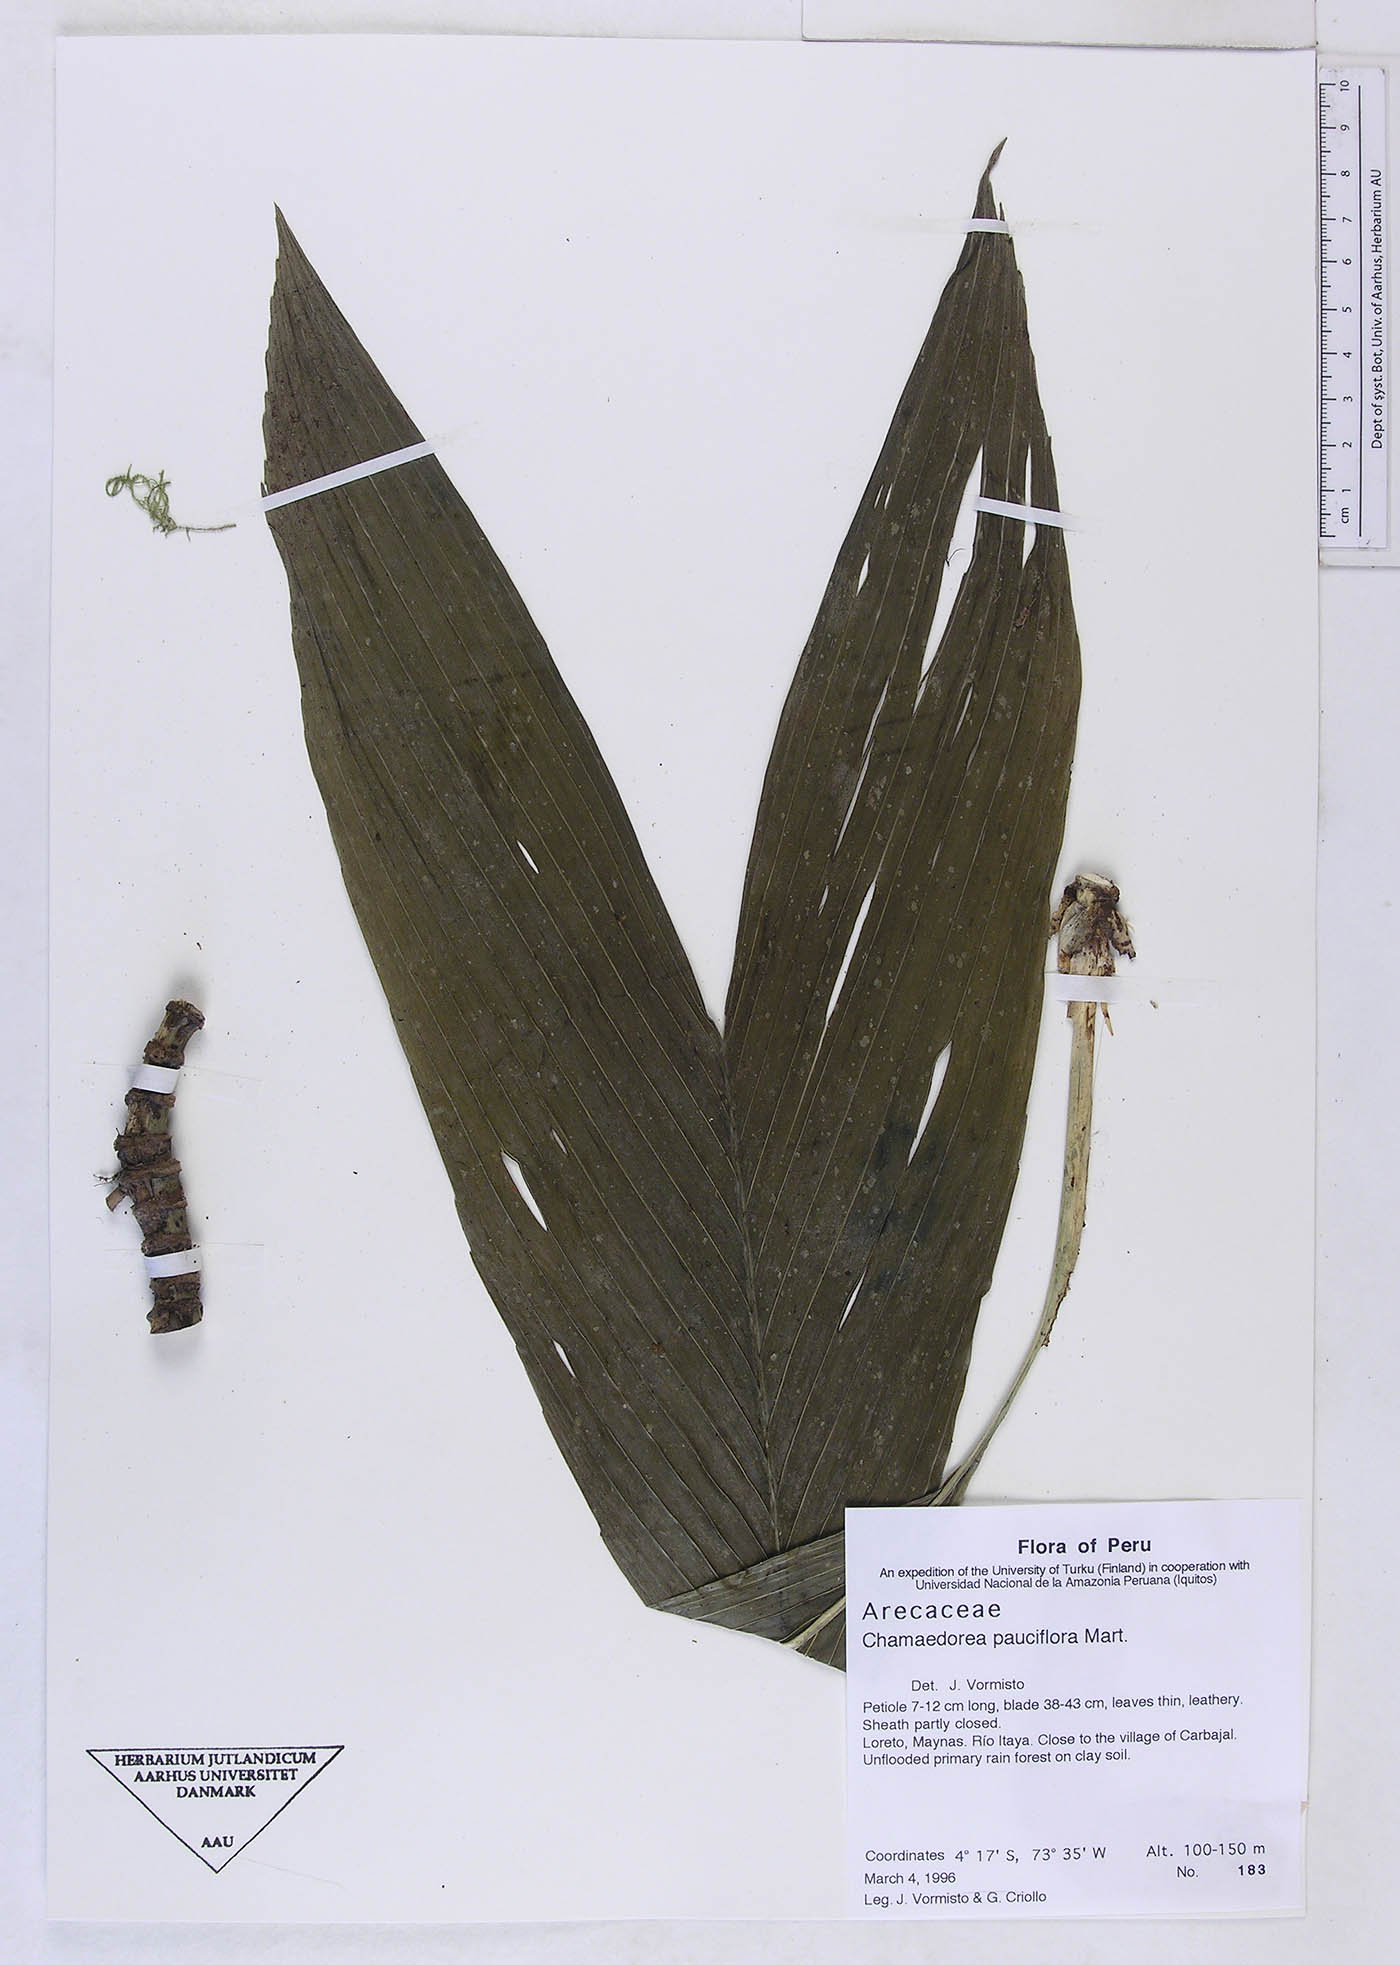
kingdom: Plantae
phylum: Tracheophyta
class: Liliopsida
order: Arecales
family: Arecaceae
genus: Chamaedorea
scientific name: Chamaedorea pauciflora
